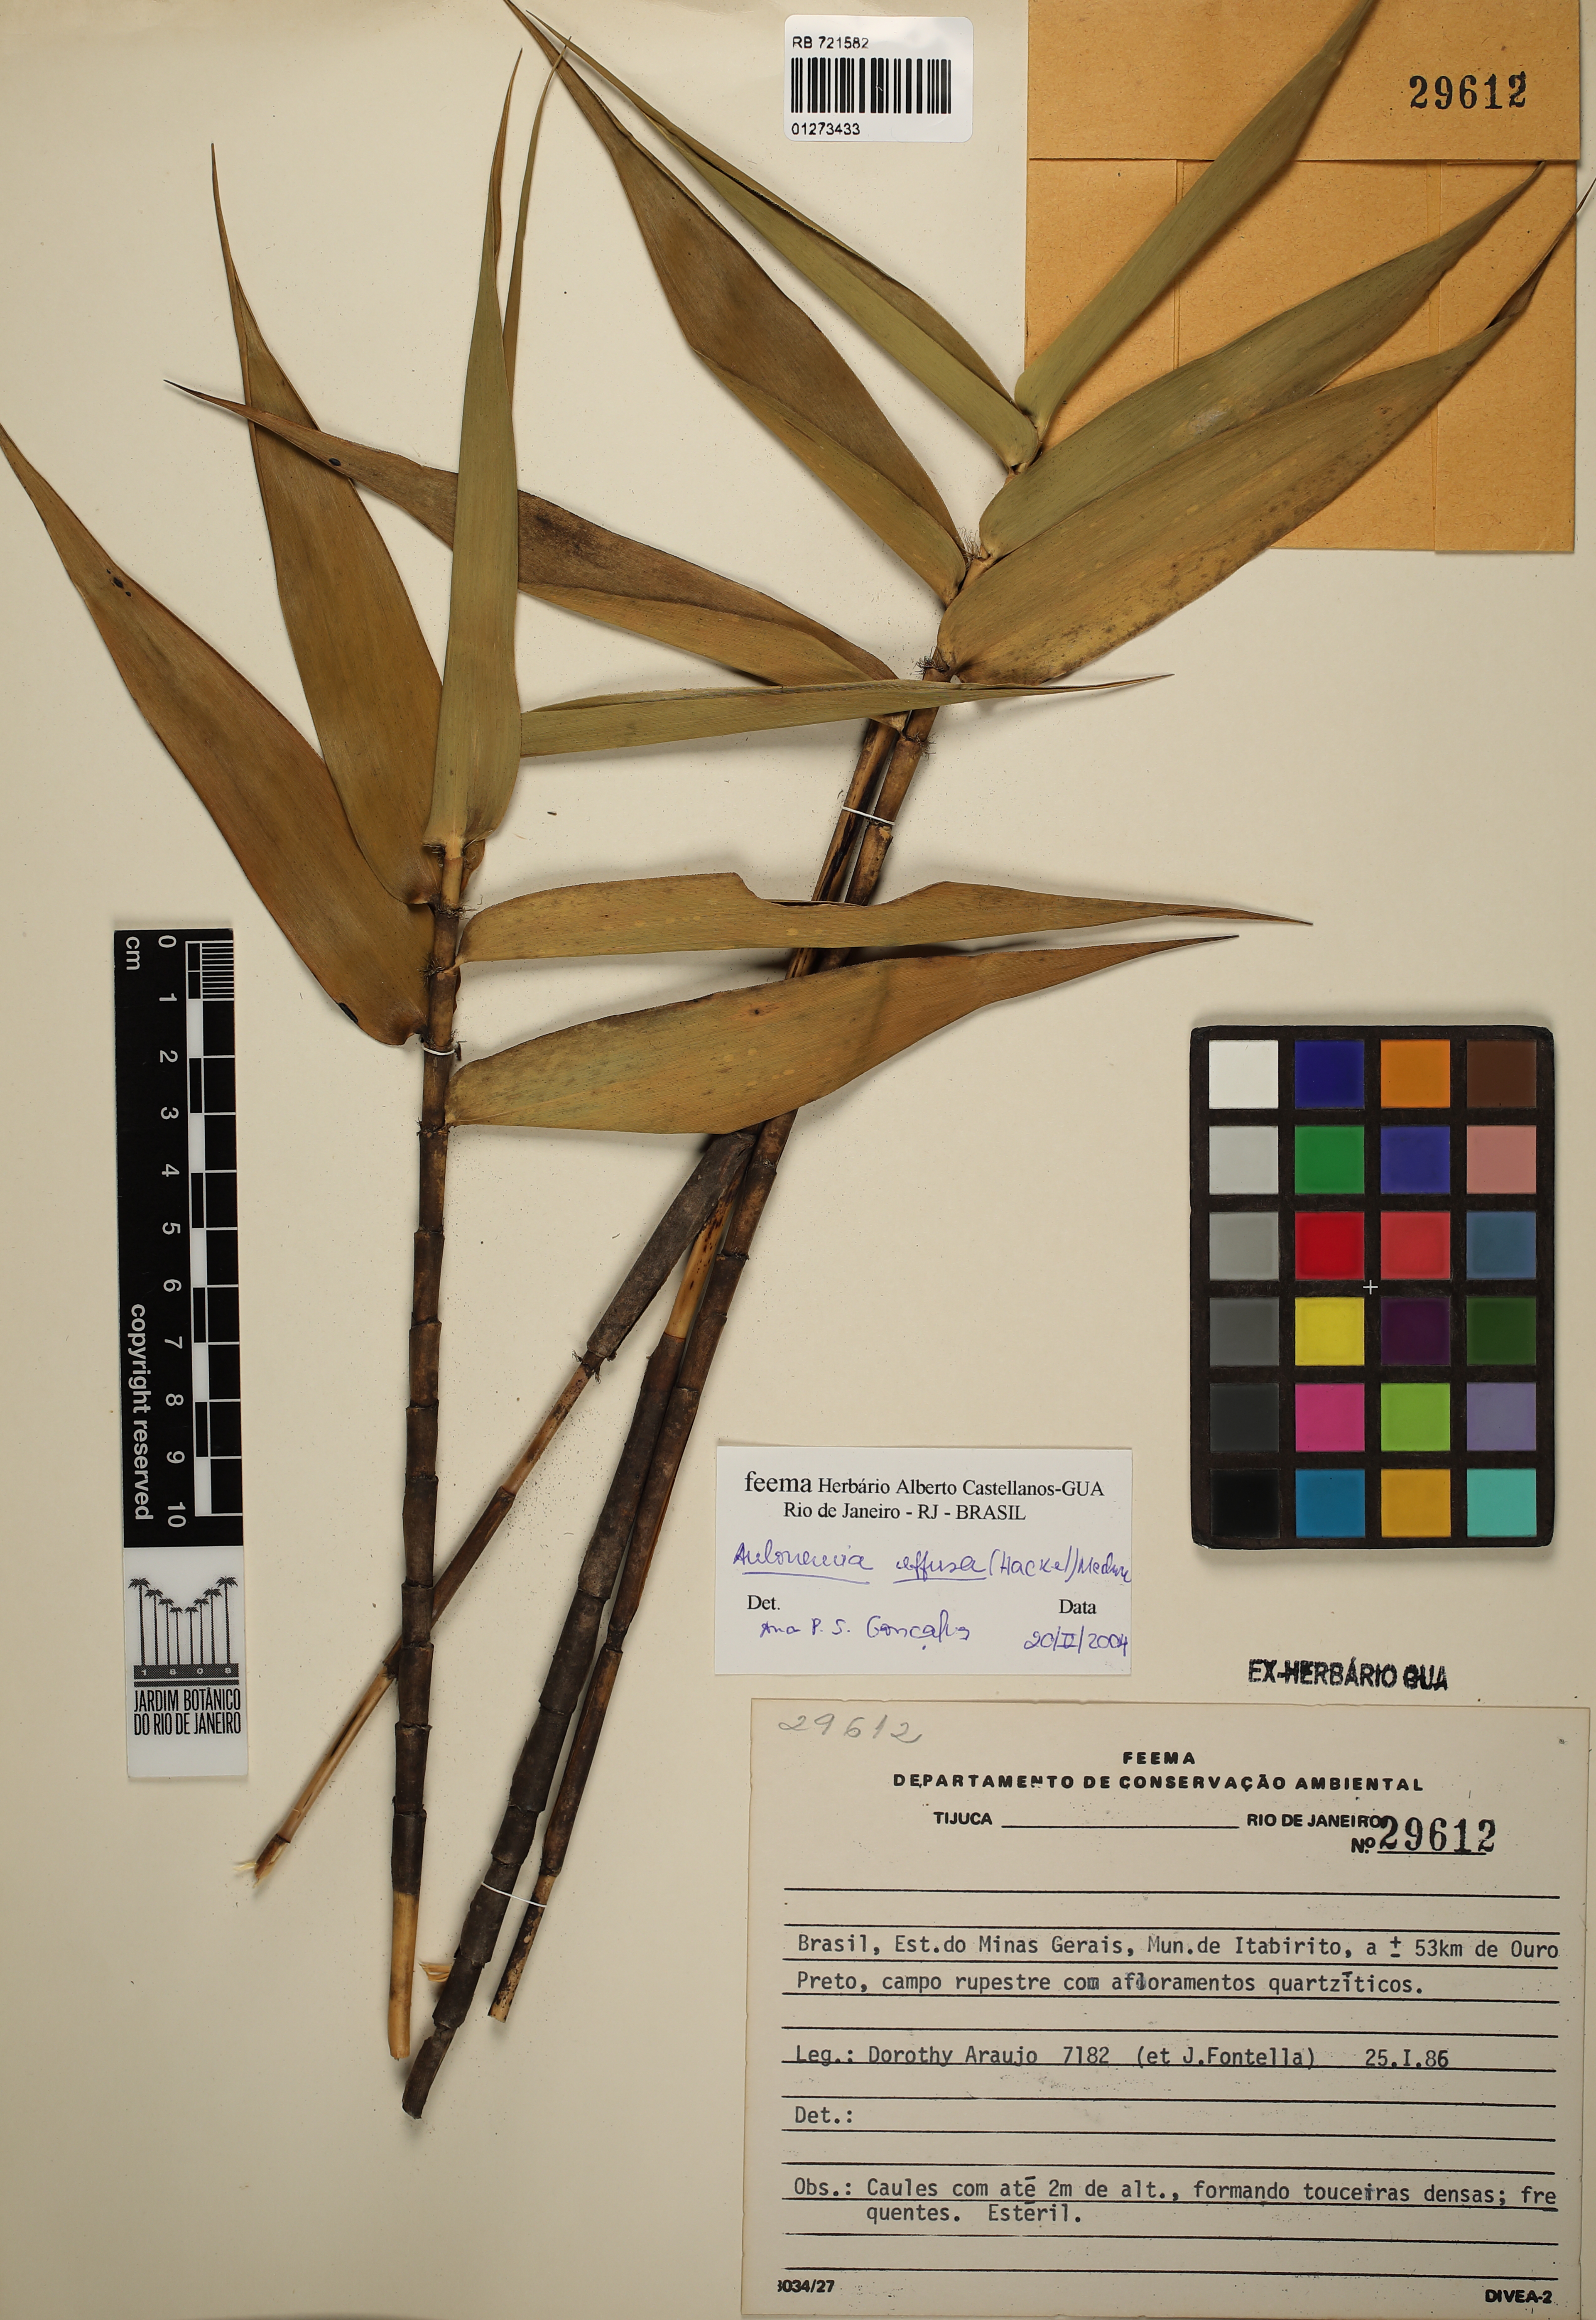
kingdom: Plantae
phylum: Tracheophyta
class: Liliopsida
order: Poales
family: Poaceae
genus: Aulonemia
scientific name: Aulonemia effusa
